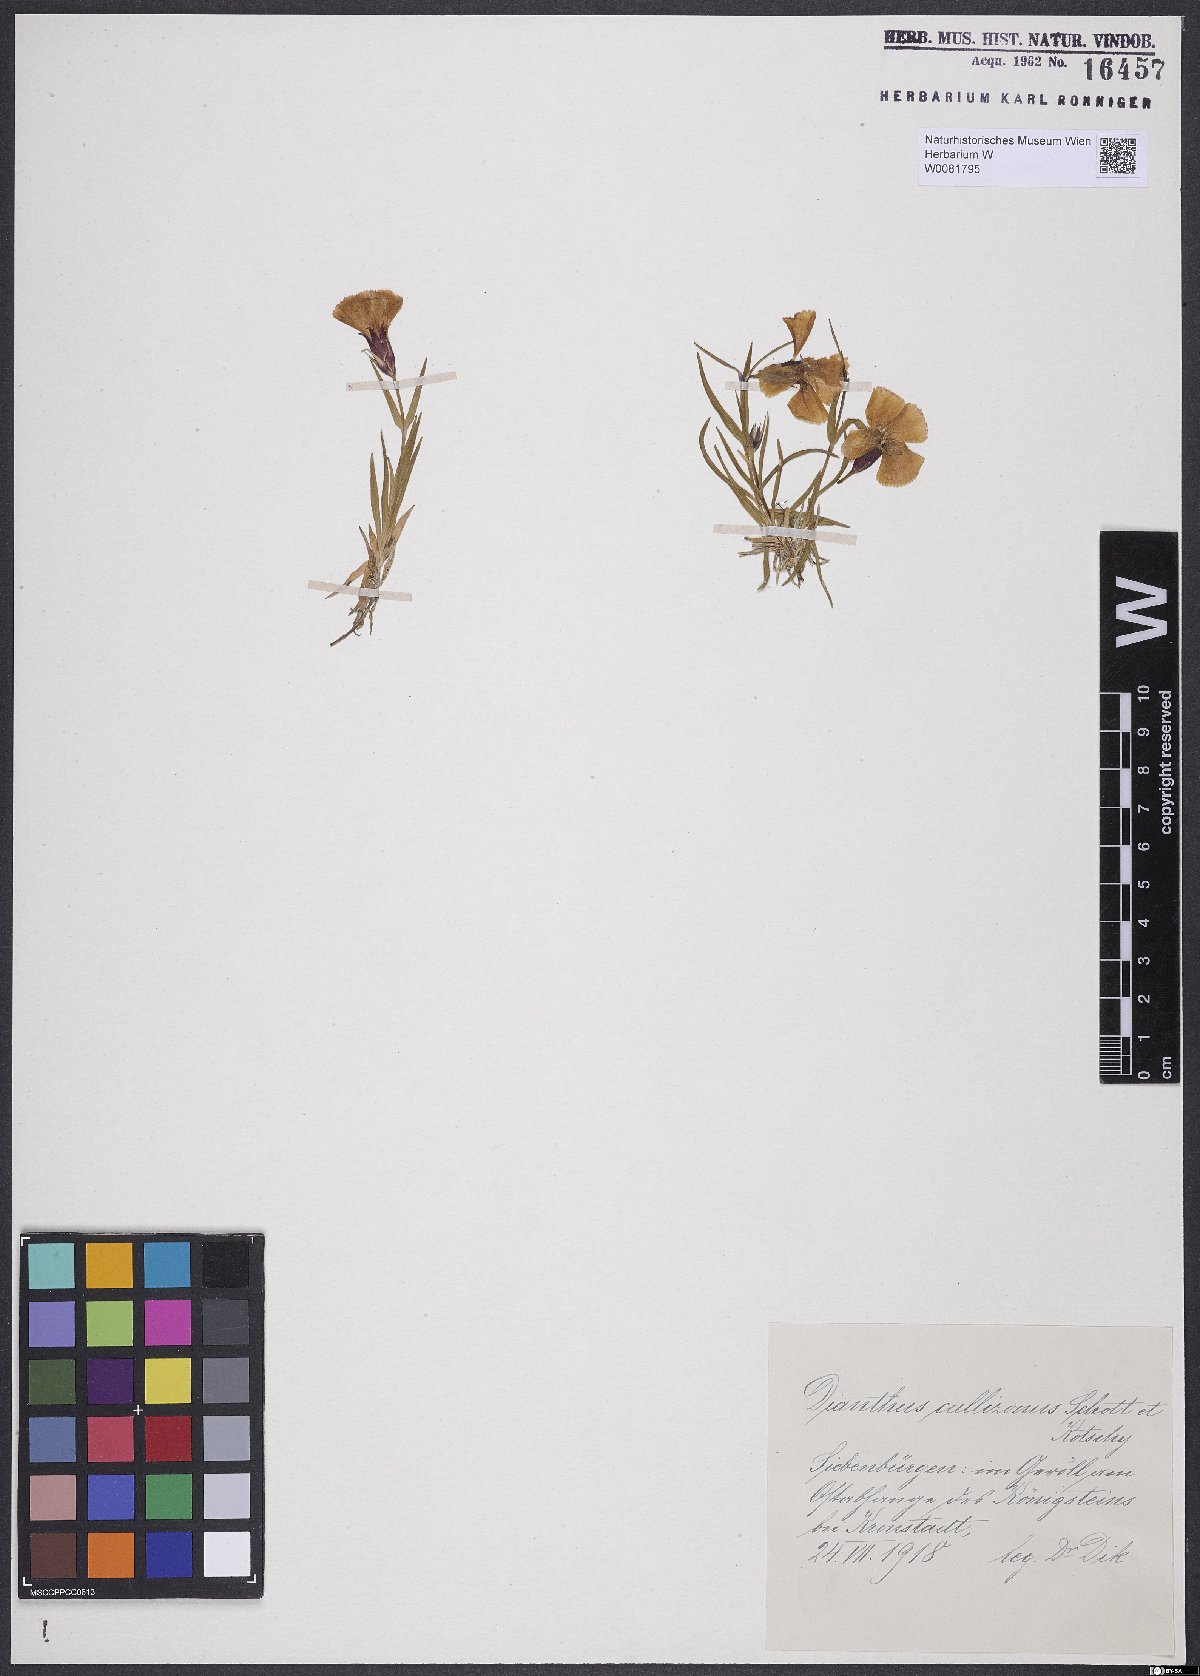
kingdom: Plantae
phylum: Tracheophyta
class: Magnoliopsida
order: Caryophyllales
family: Caryophyllaceae
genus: Dianthus
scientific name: Dianthus callizonus
